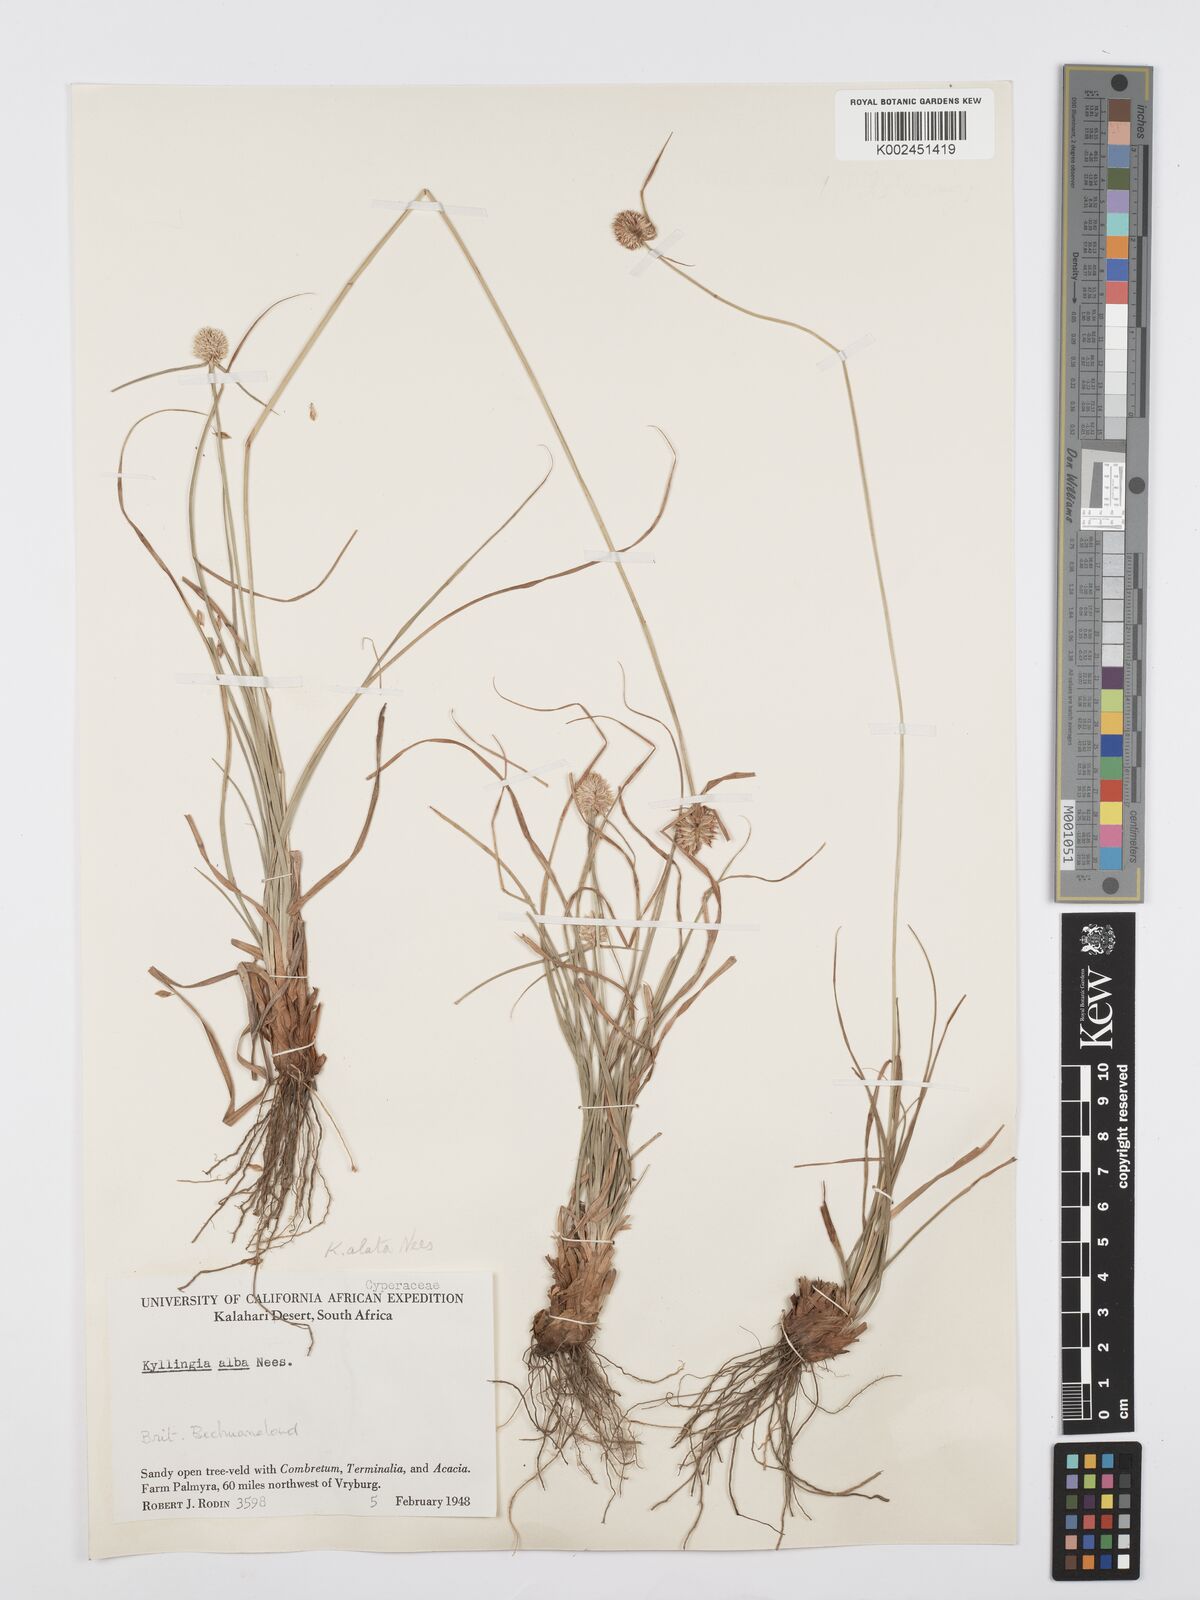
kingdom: Plantae
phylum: Tracheophyta
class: Liliopsida
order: Poales
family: Cyperaceae
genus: Cyperus
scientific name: Cyperus alatus
